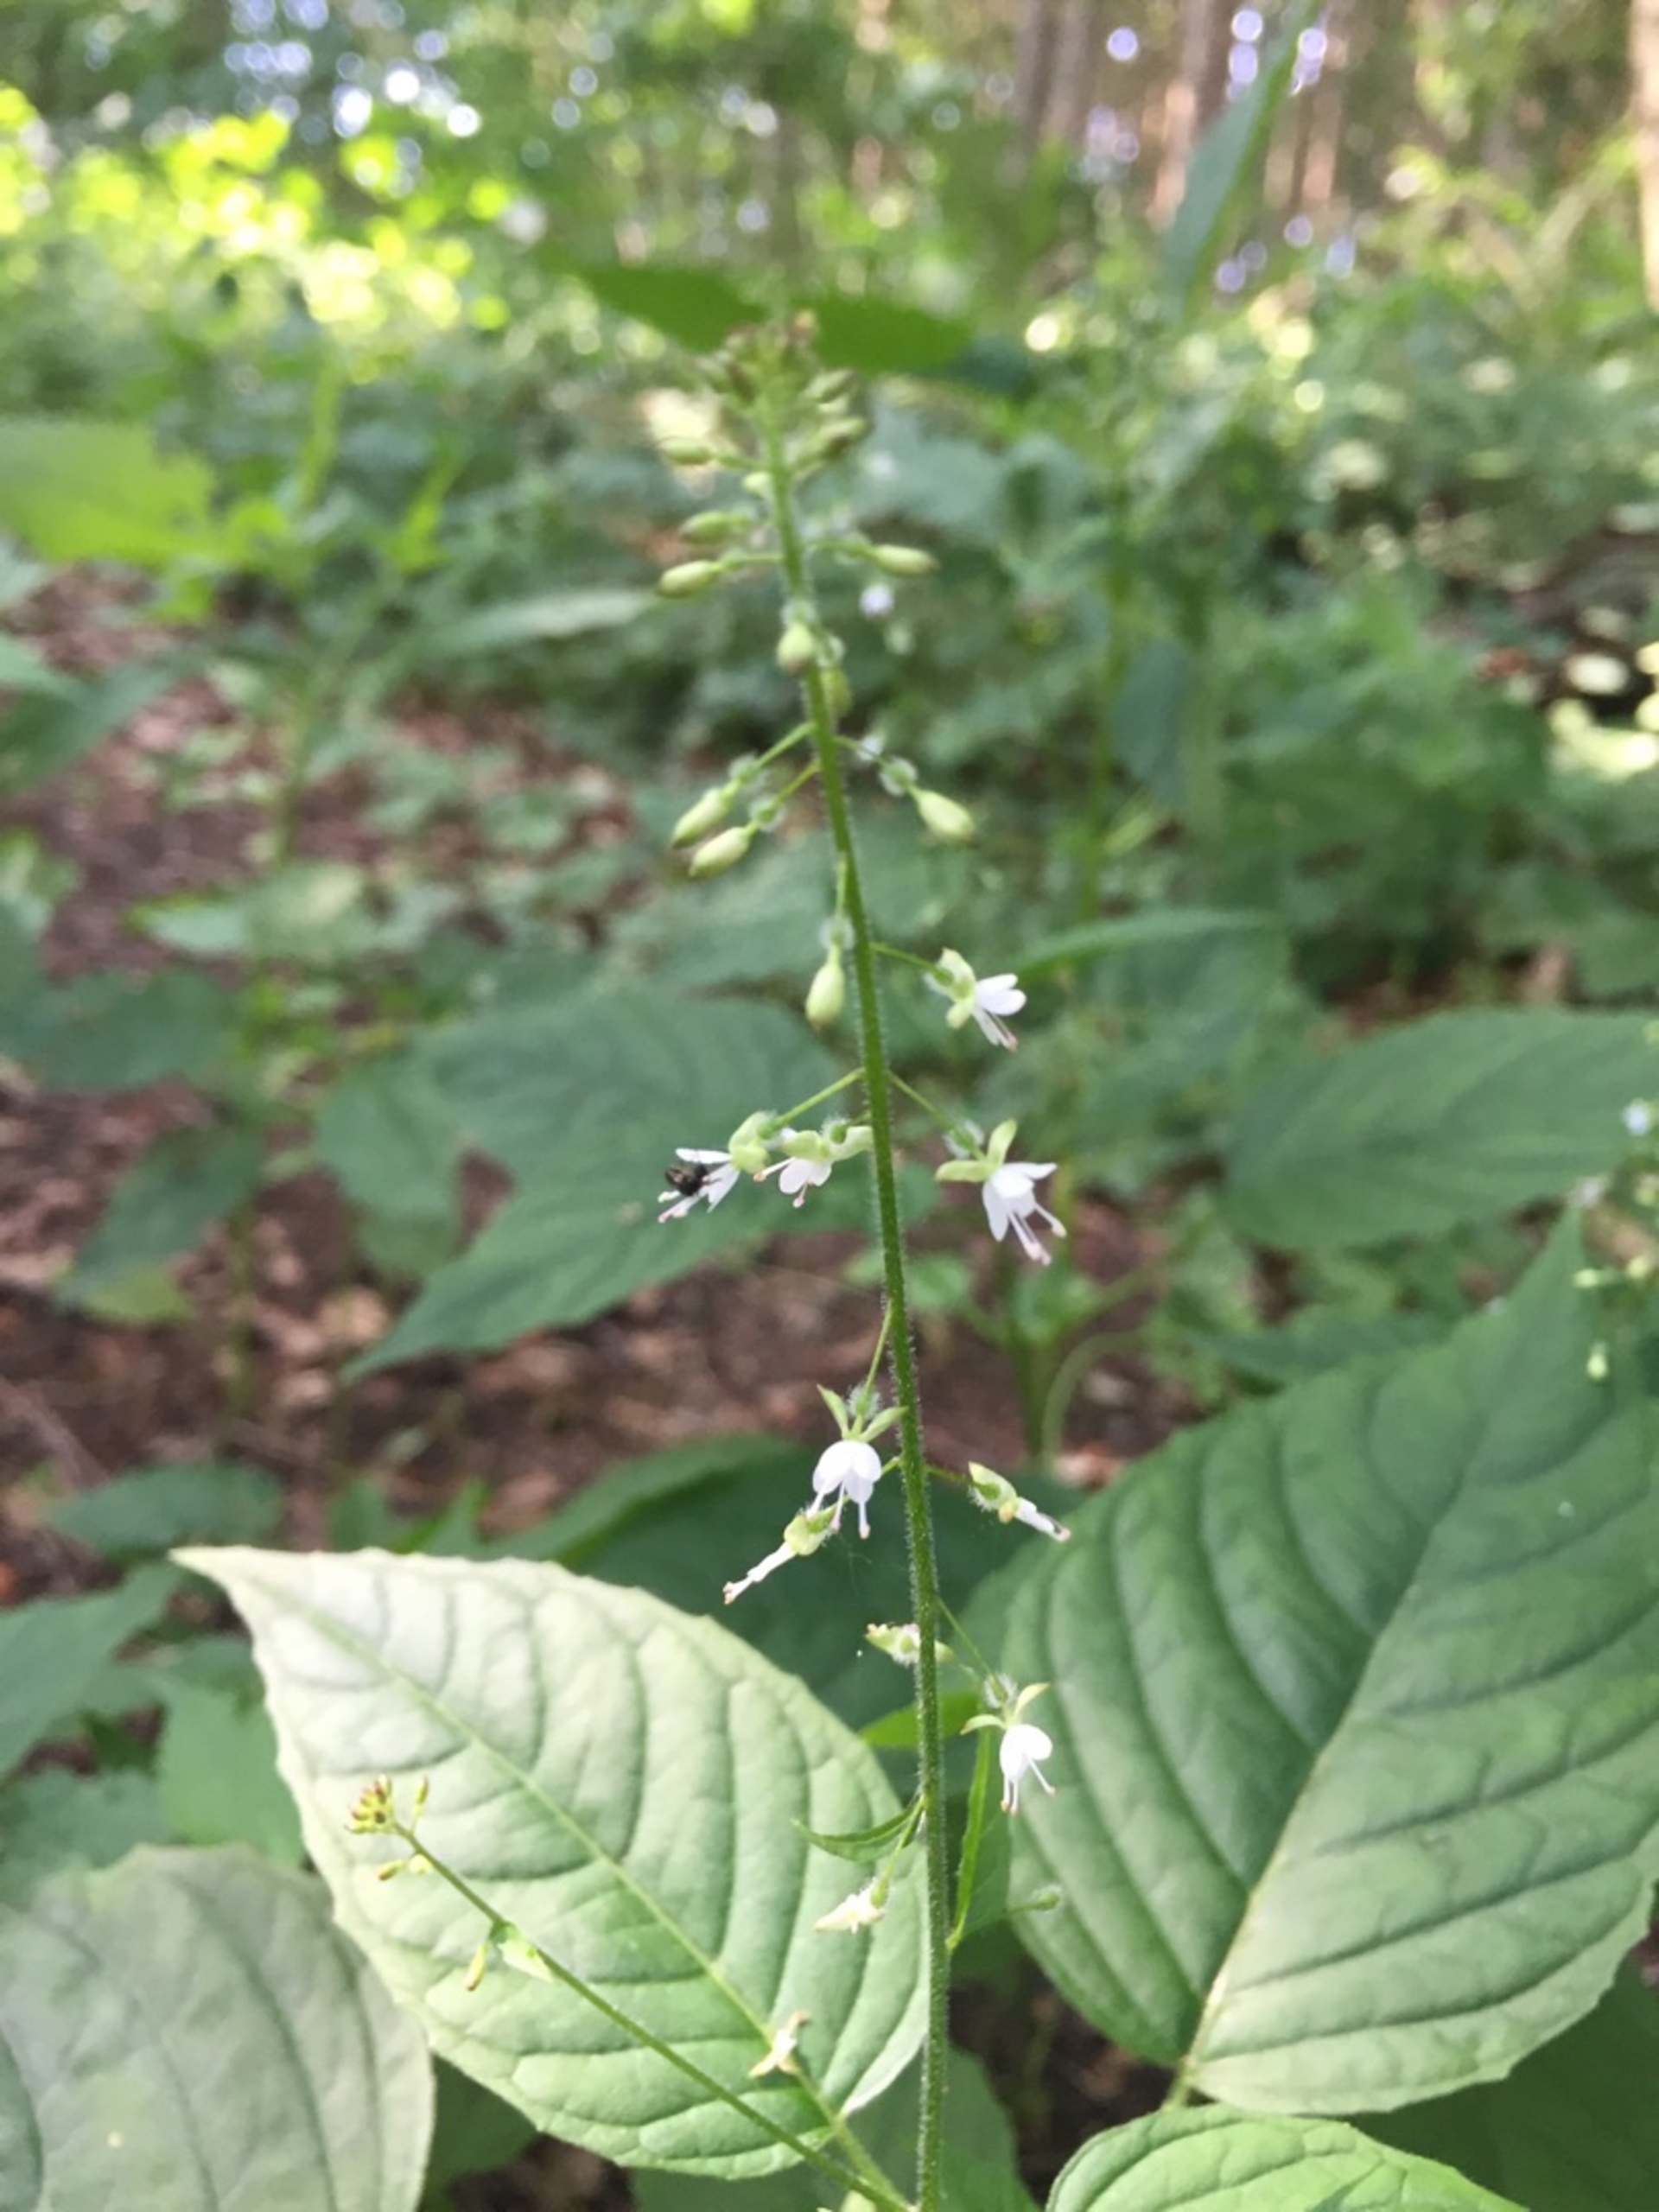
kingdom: Plantae
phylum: Tracheophyta
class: Magnoliopsida
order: Myrtales
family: Onagraceae
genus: Circaea
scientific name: Circaea lutetiana
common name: Dunet steffensurt
